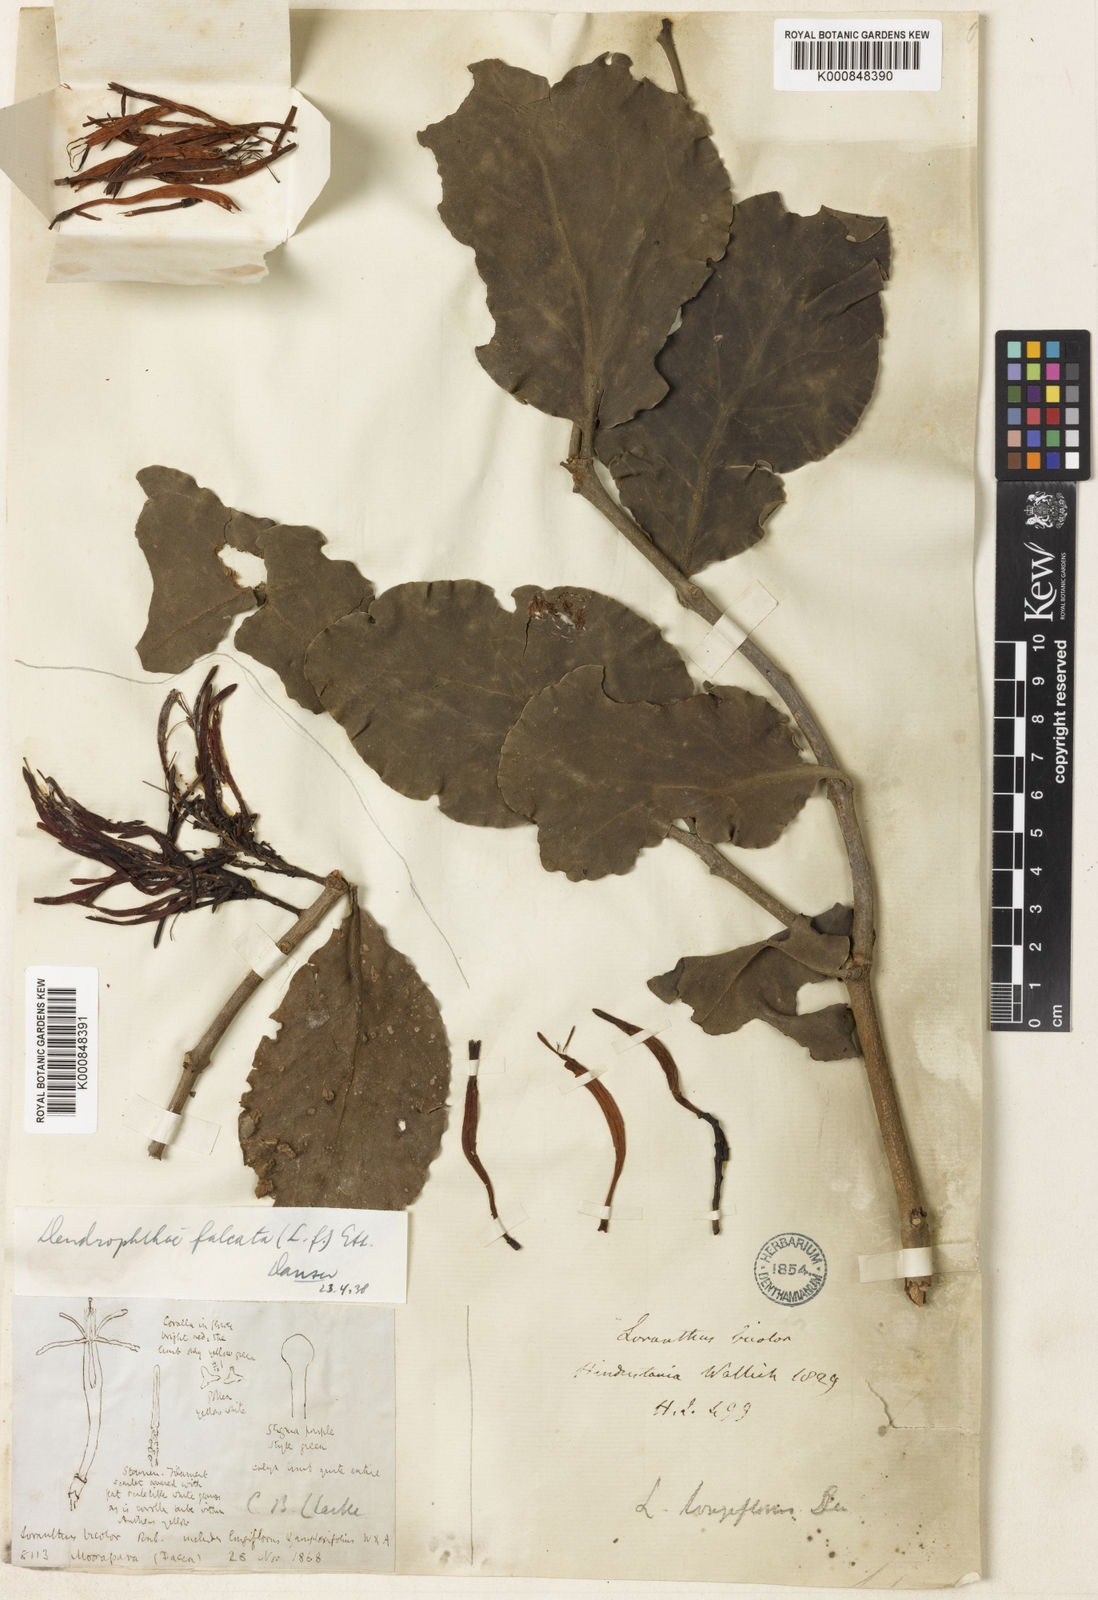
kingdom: Plantae
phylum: Tracheophyta
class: Magnoliopsida
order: Santalales
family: Loranthaceae
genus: Dendrophthoe
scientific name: Dendrophthoe
